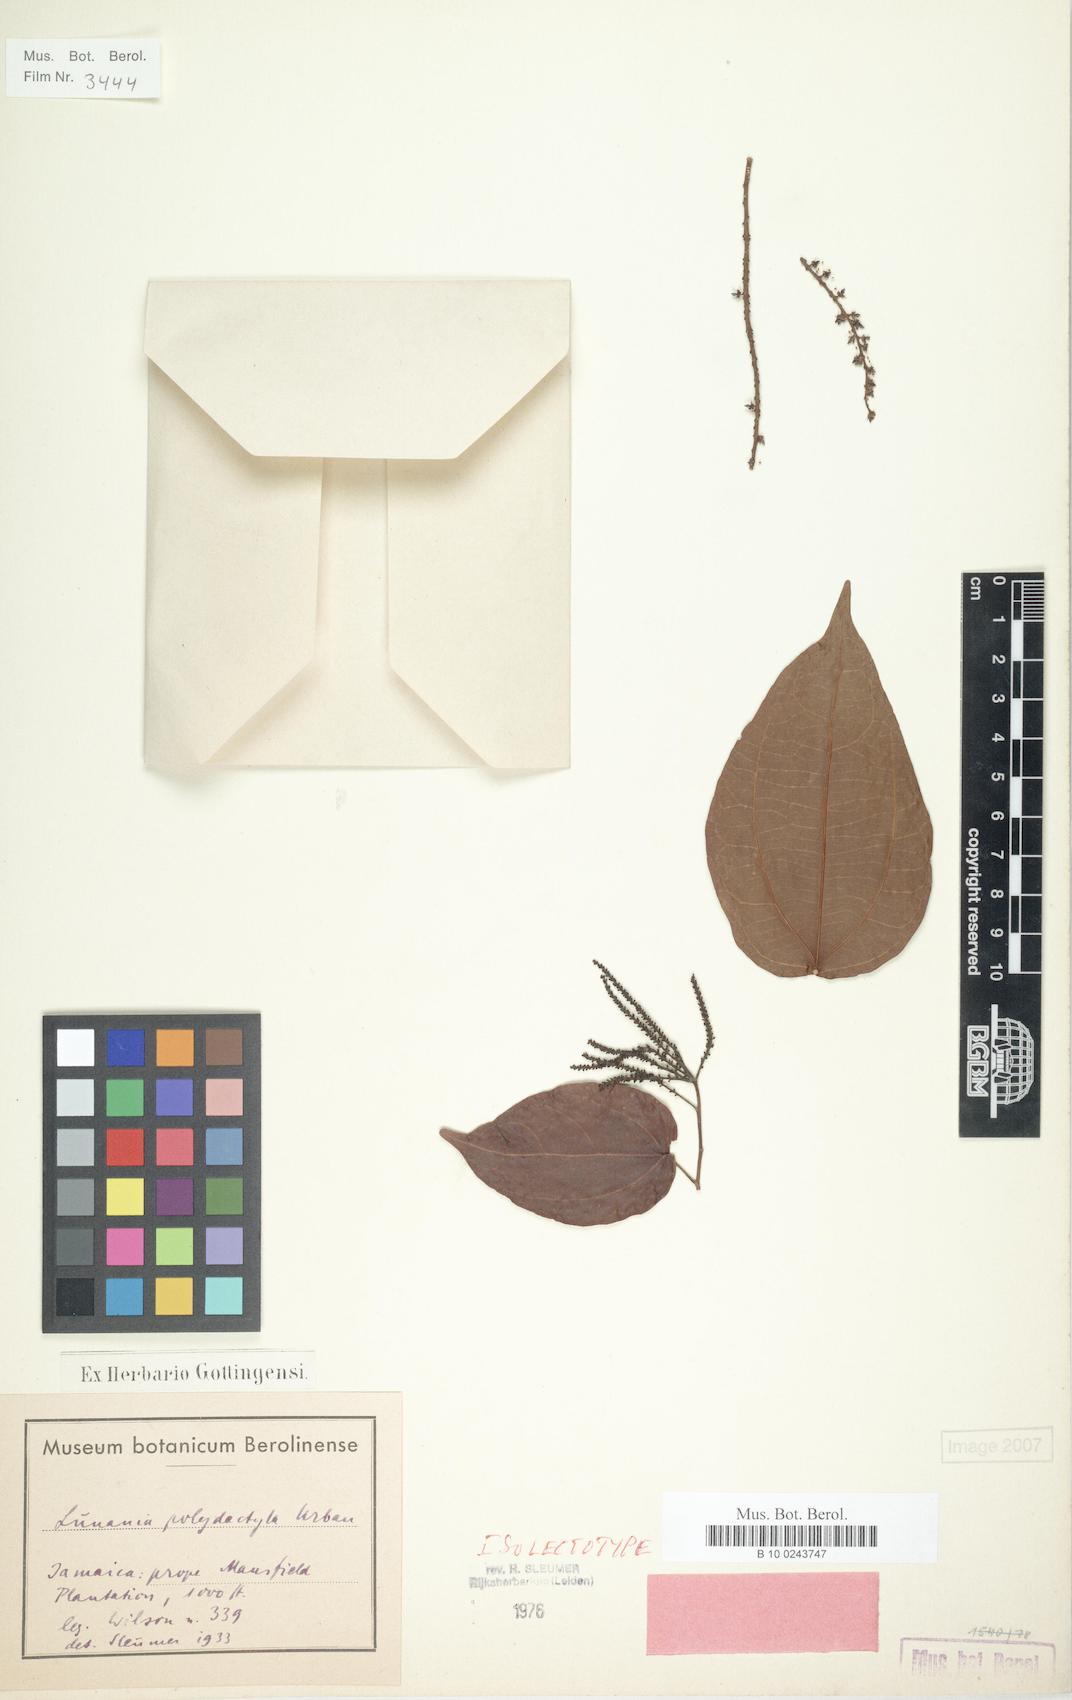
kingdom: Plantae
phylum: Tracheophyta
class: Magnoliopsida
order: Malpighiales
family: Salicaceae
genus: Lunania
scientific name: Lunania polydactyla
